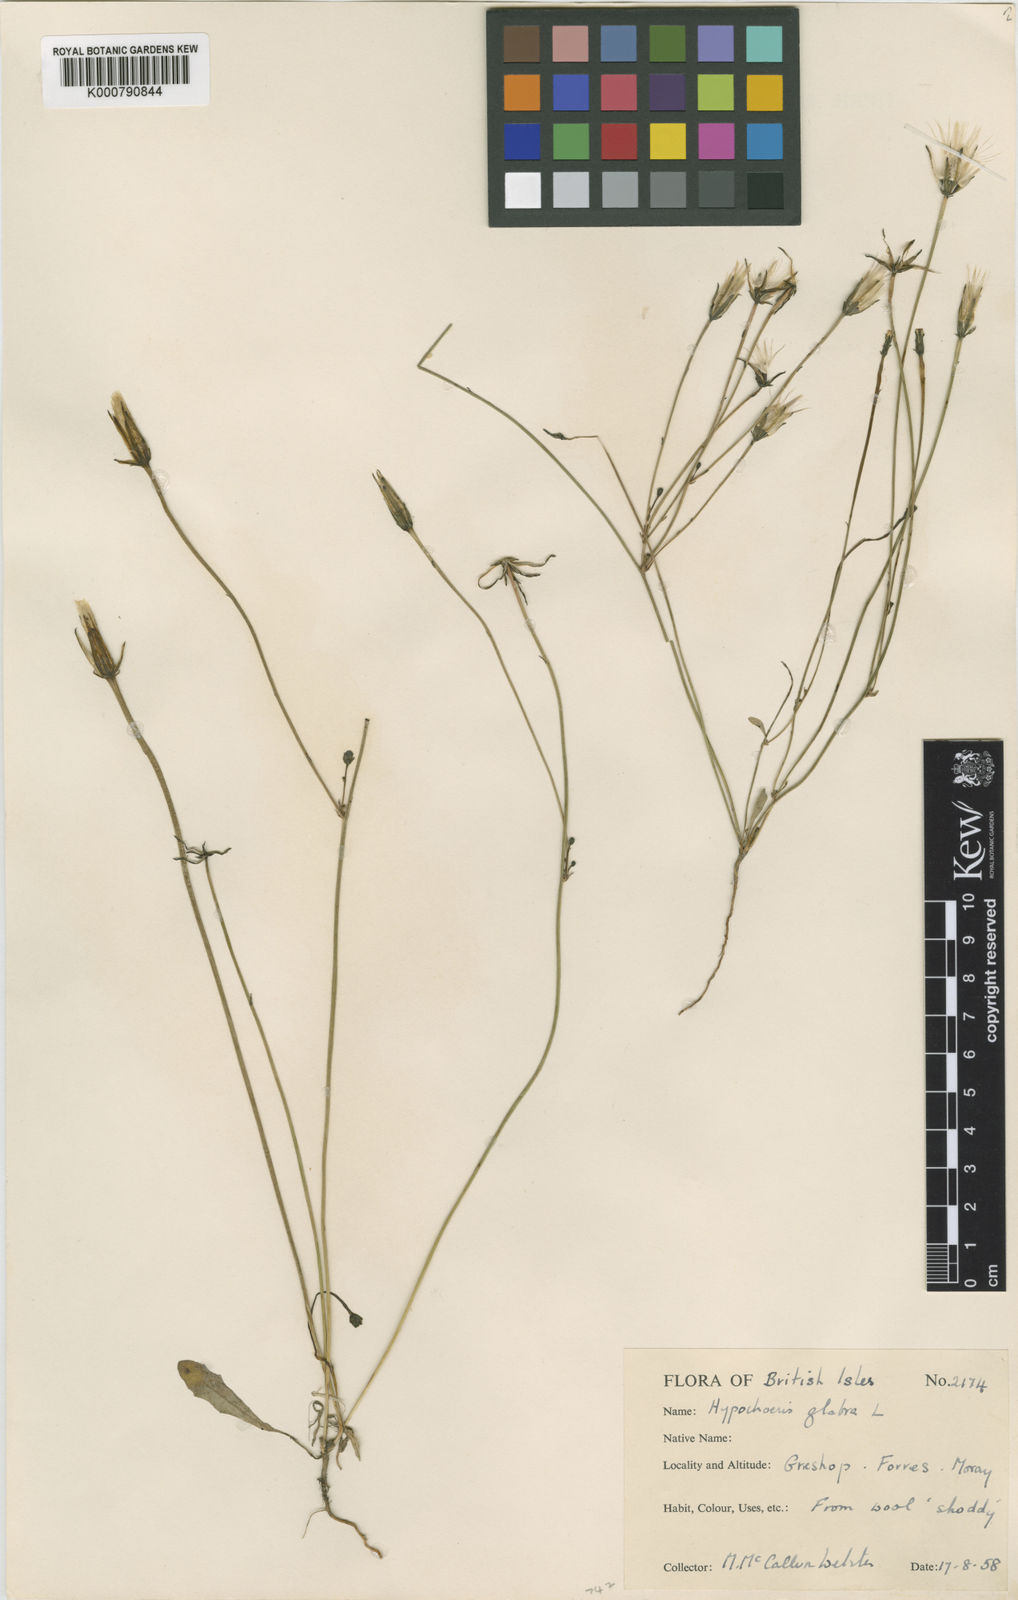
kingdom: Plantae
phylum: Tracheophyta
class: Magnoliopsida
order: Asterales
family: Asteraceae
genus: Hypochaeris
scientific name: Hypochaeris glabra
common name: Smooth catsear
